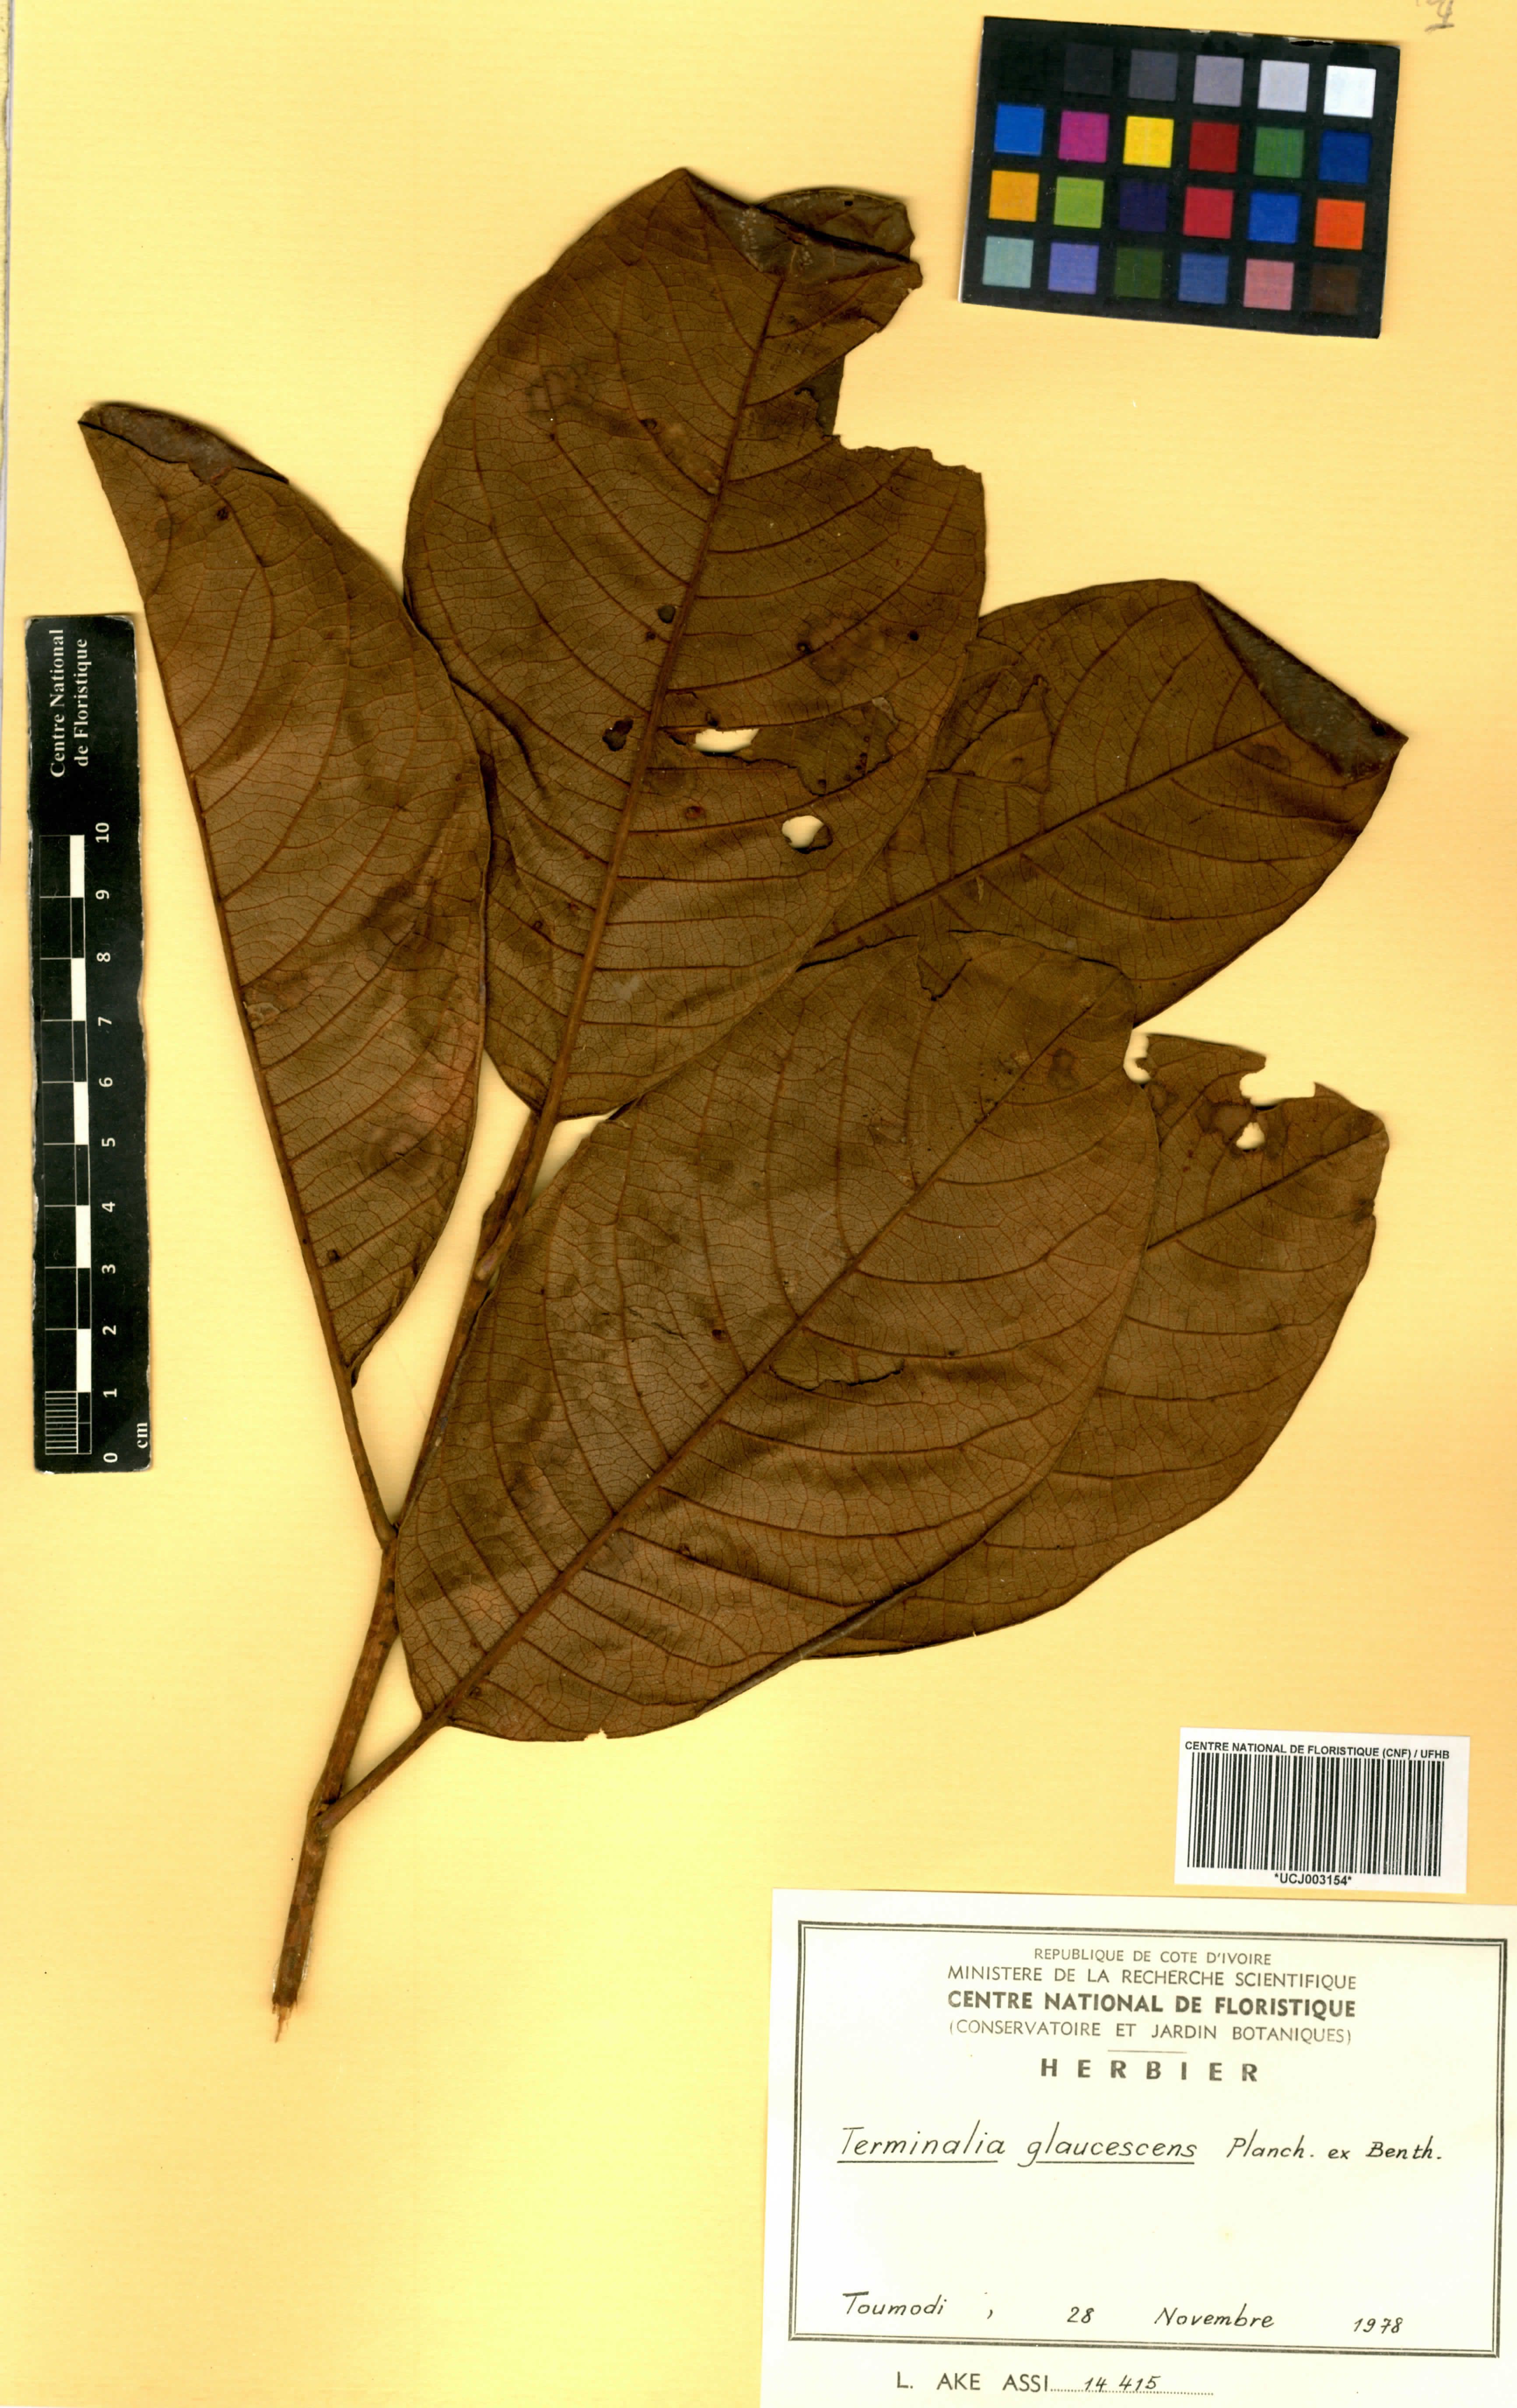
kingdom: Plantae
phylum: Tracheophyta
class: Magnoliopsida
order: Myrtales
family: Combretaceae
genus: Terminalia
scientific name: Terminalia schimperiana
